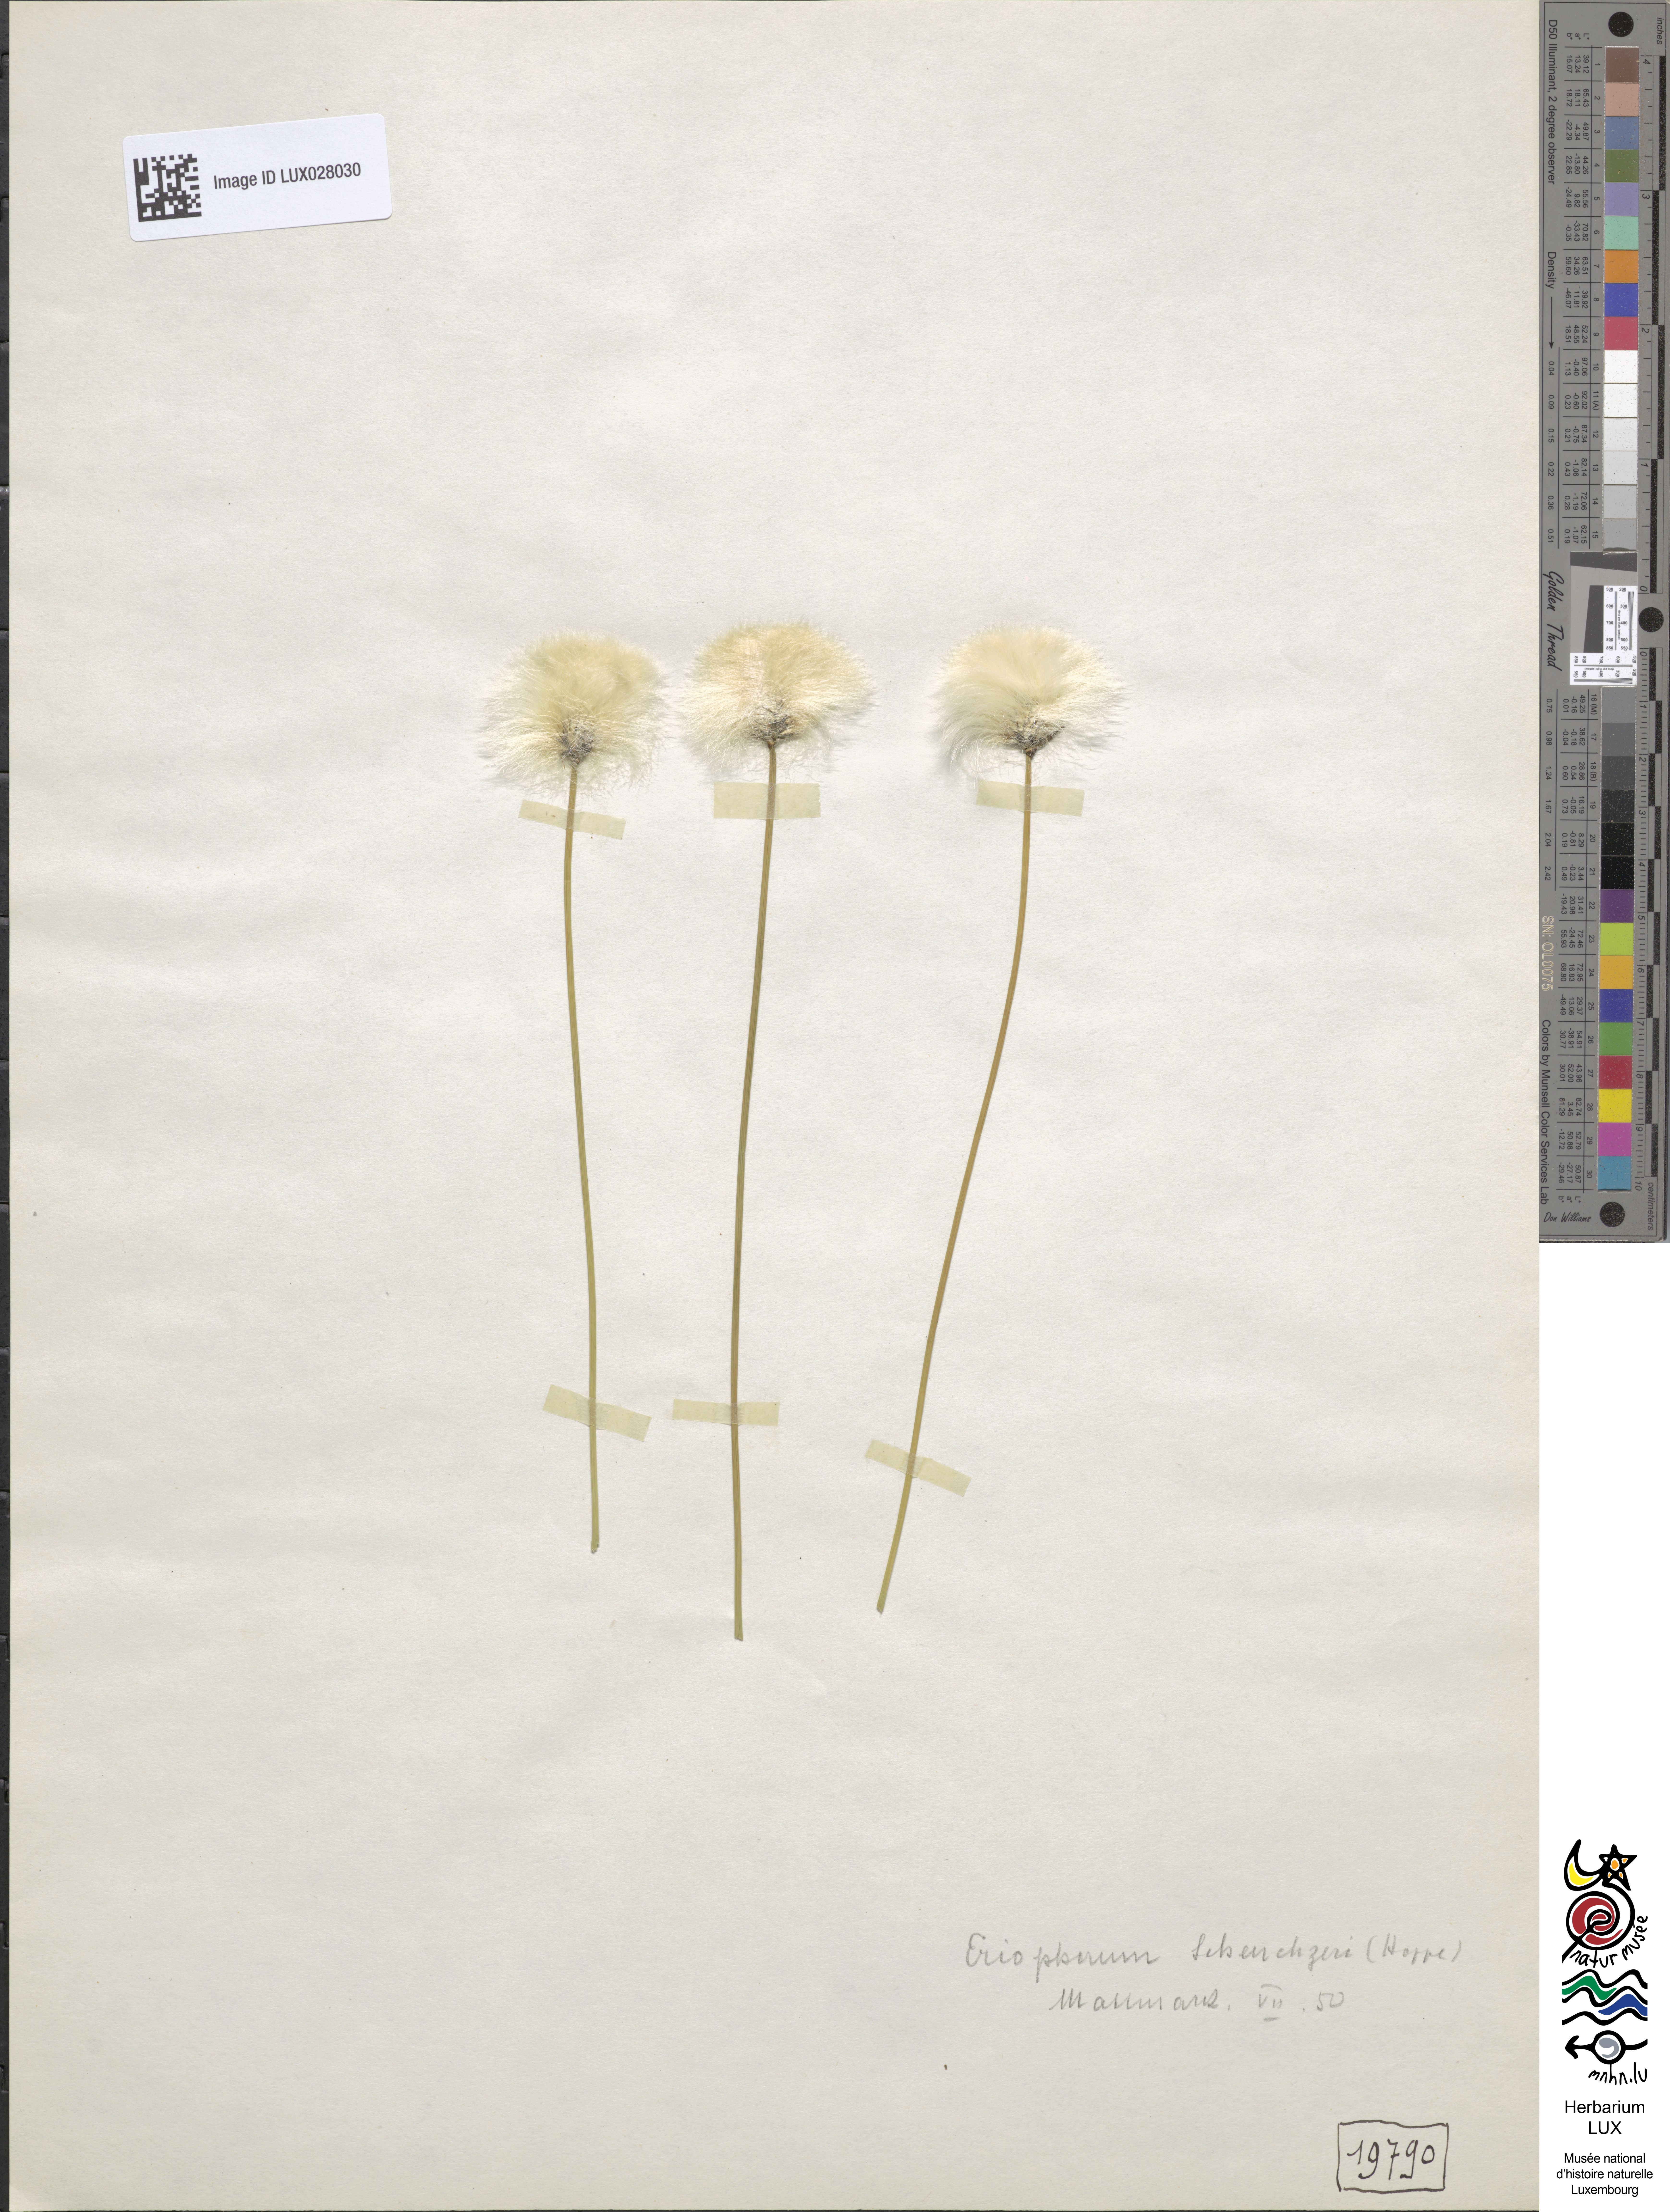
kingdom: Plantae
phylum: Tracheophyta
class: Liliopsida
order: Poales
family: Cyperaceae
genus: Eriophorum
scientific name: Eriophorum scheuchzeri
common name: Scheuchzer's cottongrass
